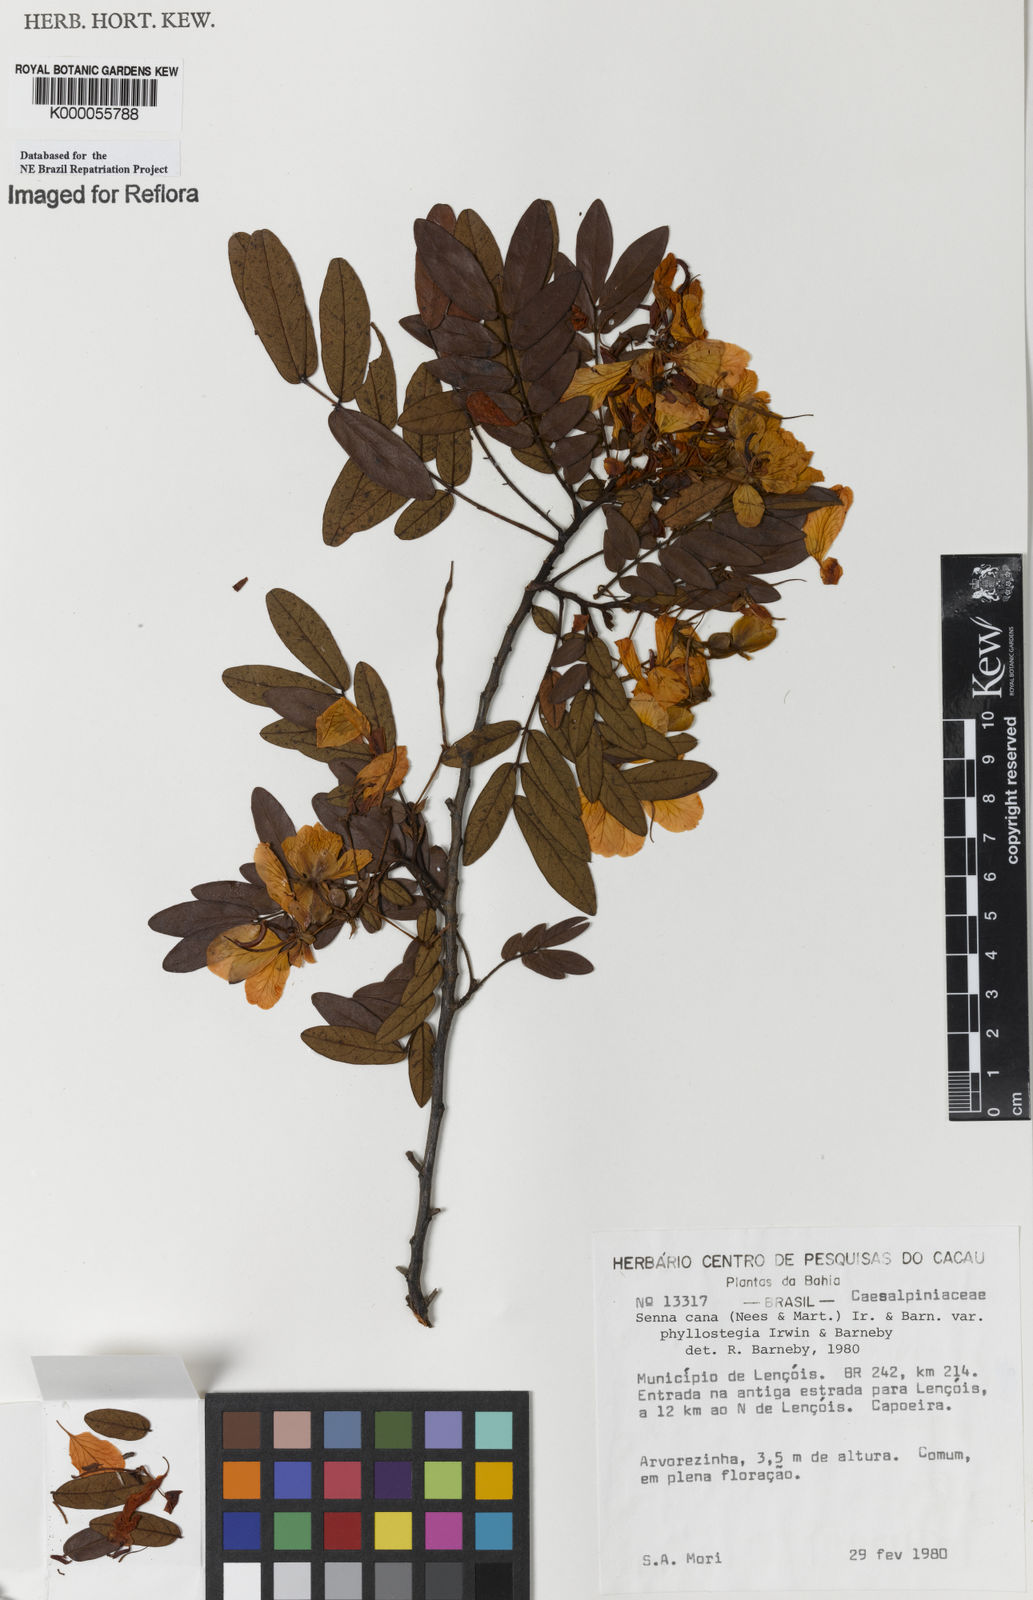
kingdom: Plantae
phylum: Tracheophyta
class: Magnoliopsida
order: Fabales
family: Fabaceae
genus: Senna
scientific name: Senna cana
